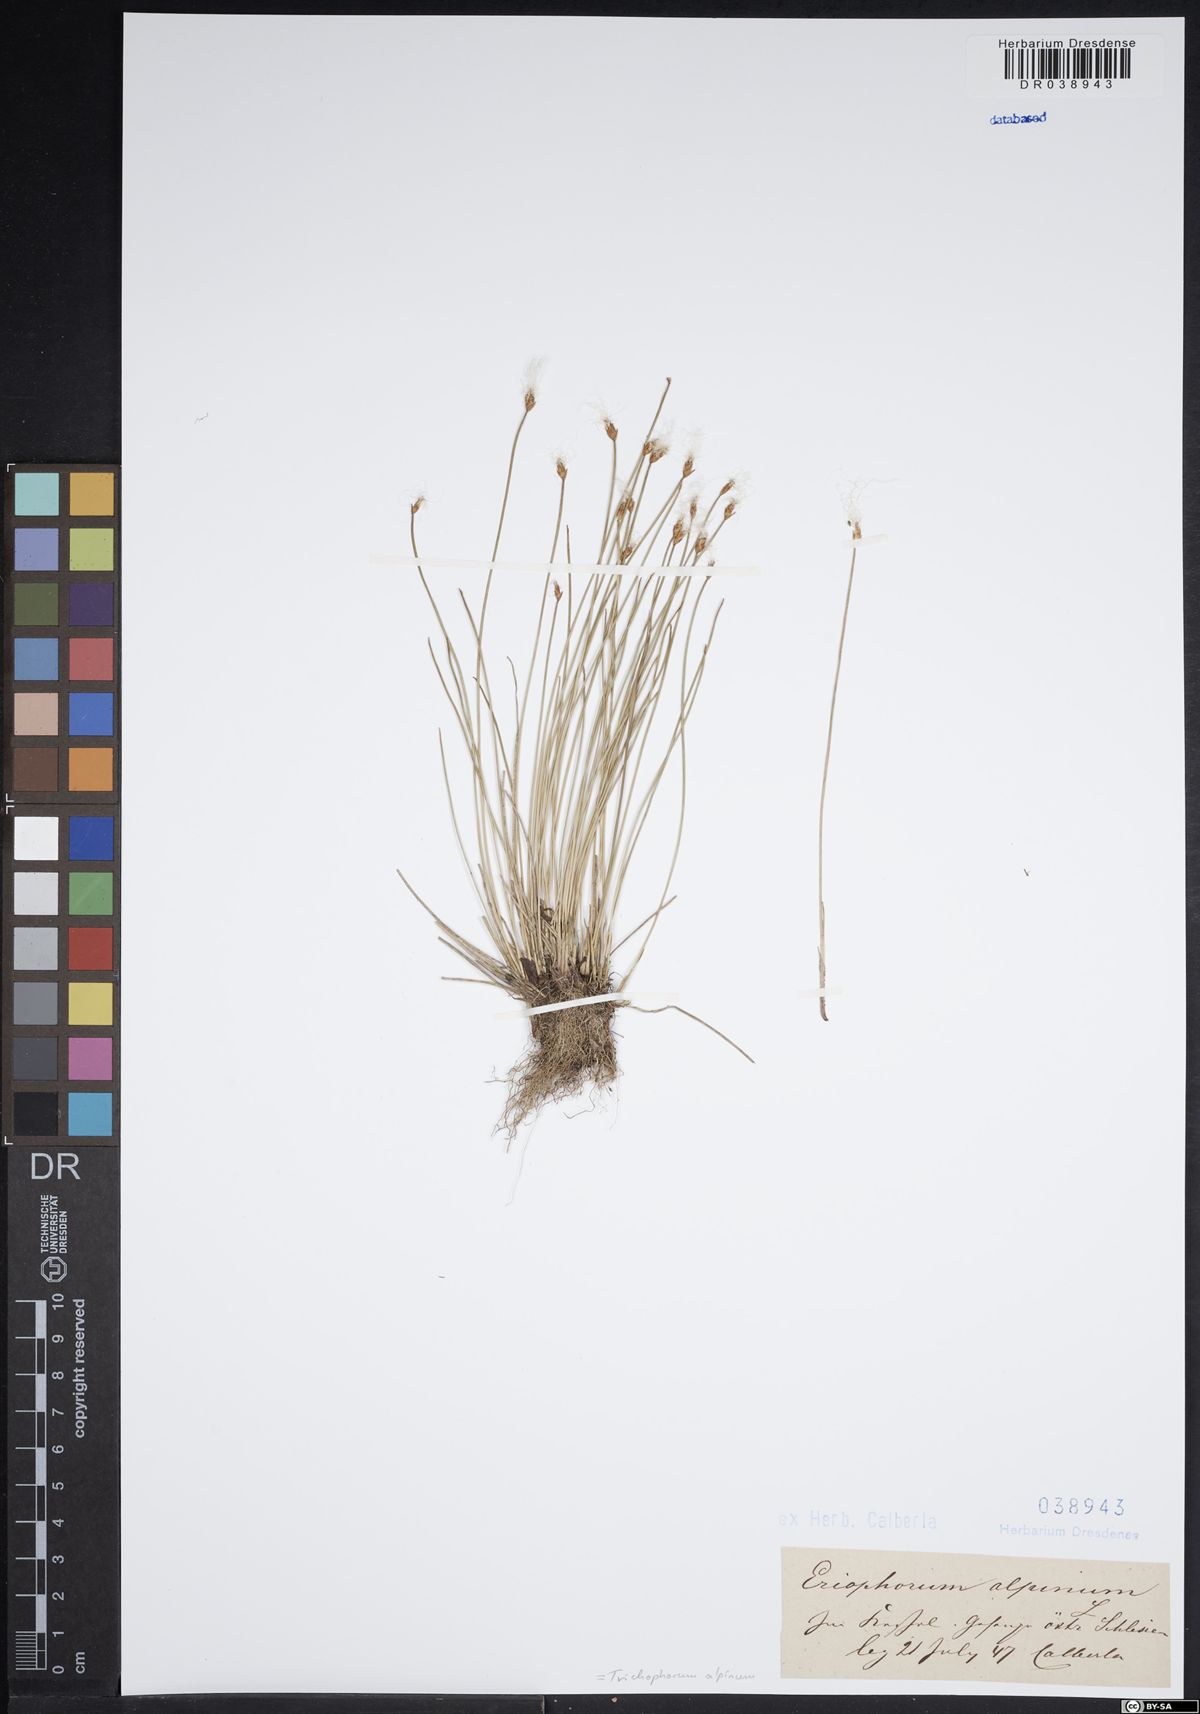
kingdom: Plantae
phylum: Tracheophyta
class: Liliopsida
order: Poales
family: Cyperaceae
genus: Trichophorum
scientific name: Trichophorum alpinum
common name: Alpine bulrush
